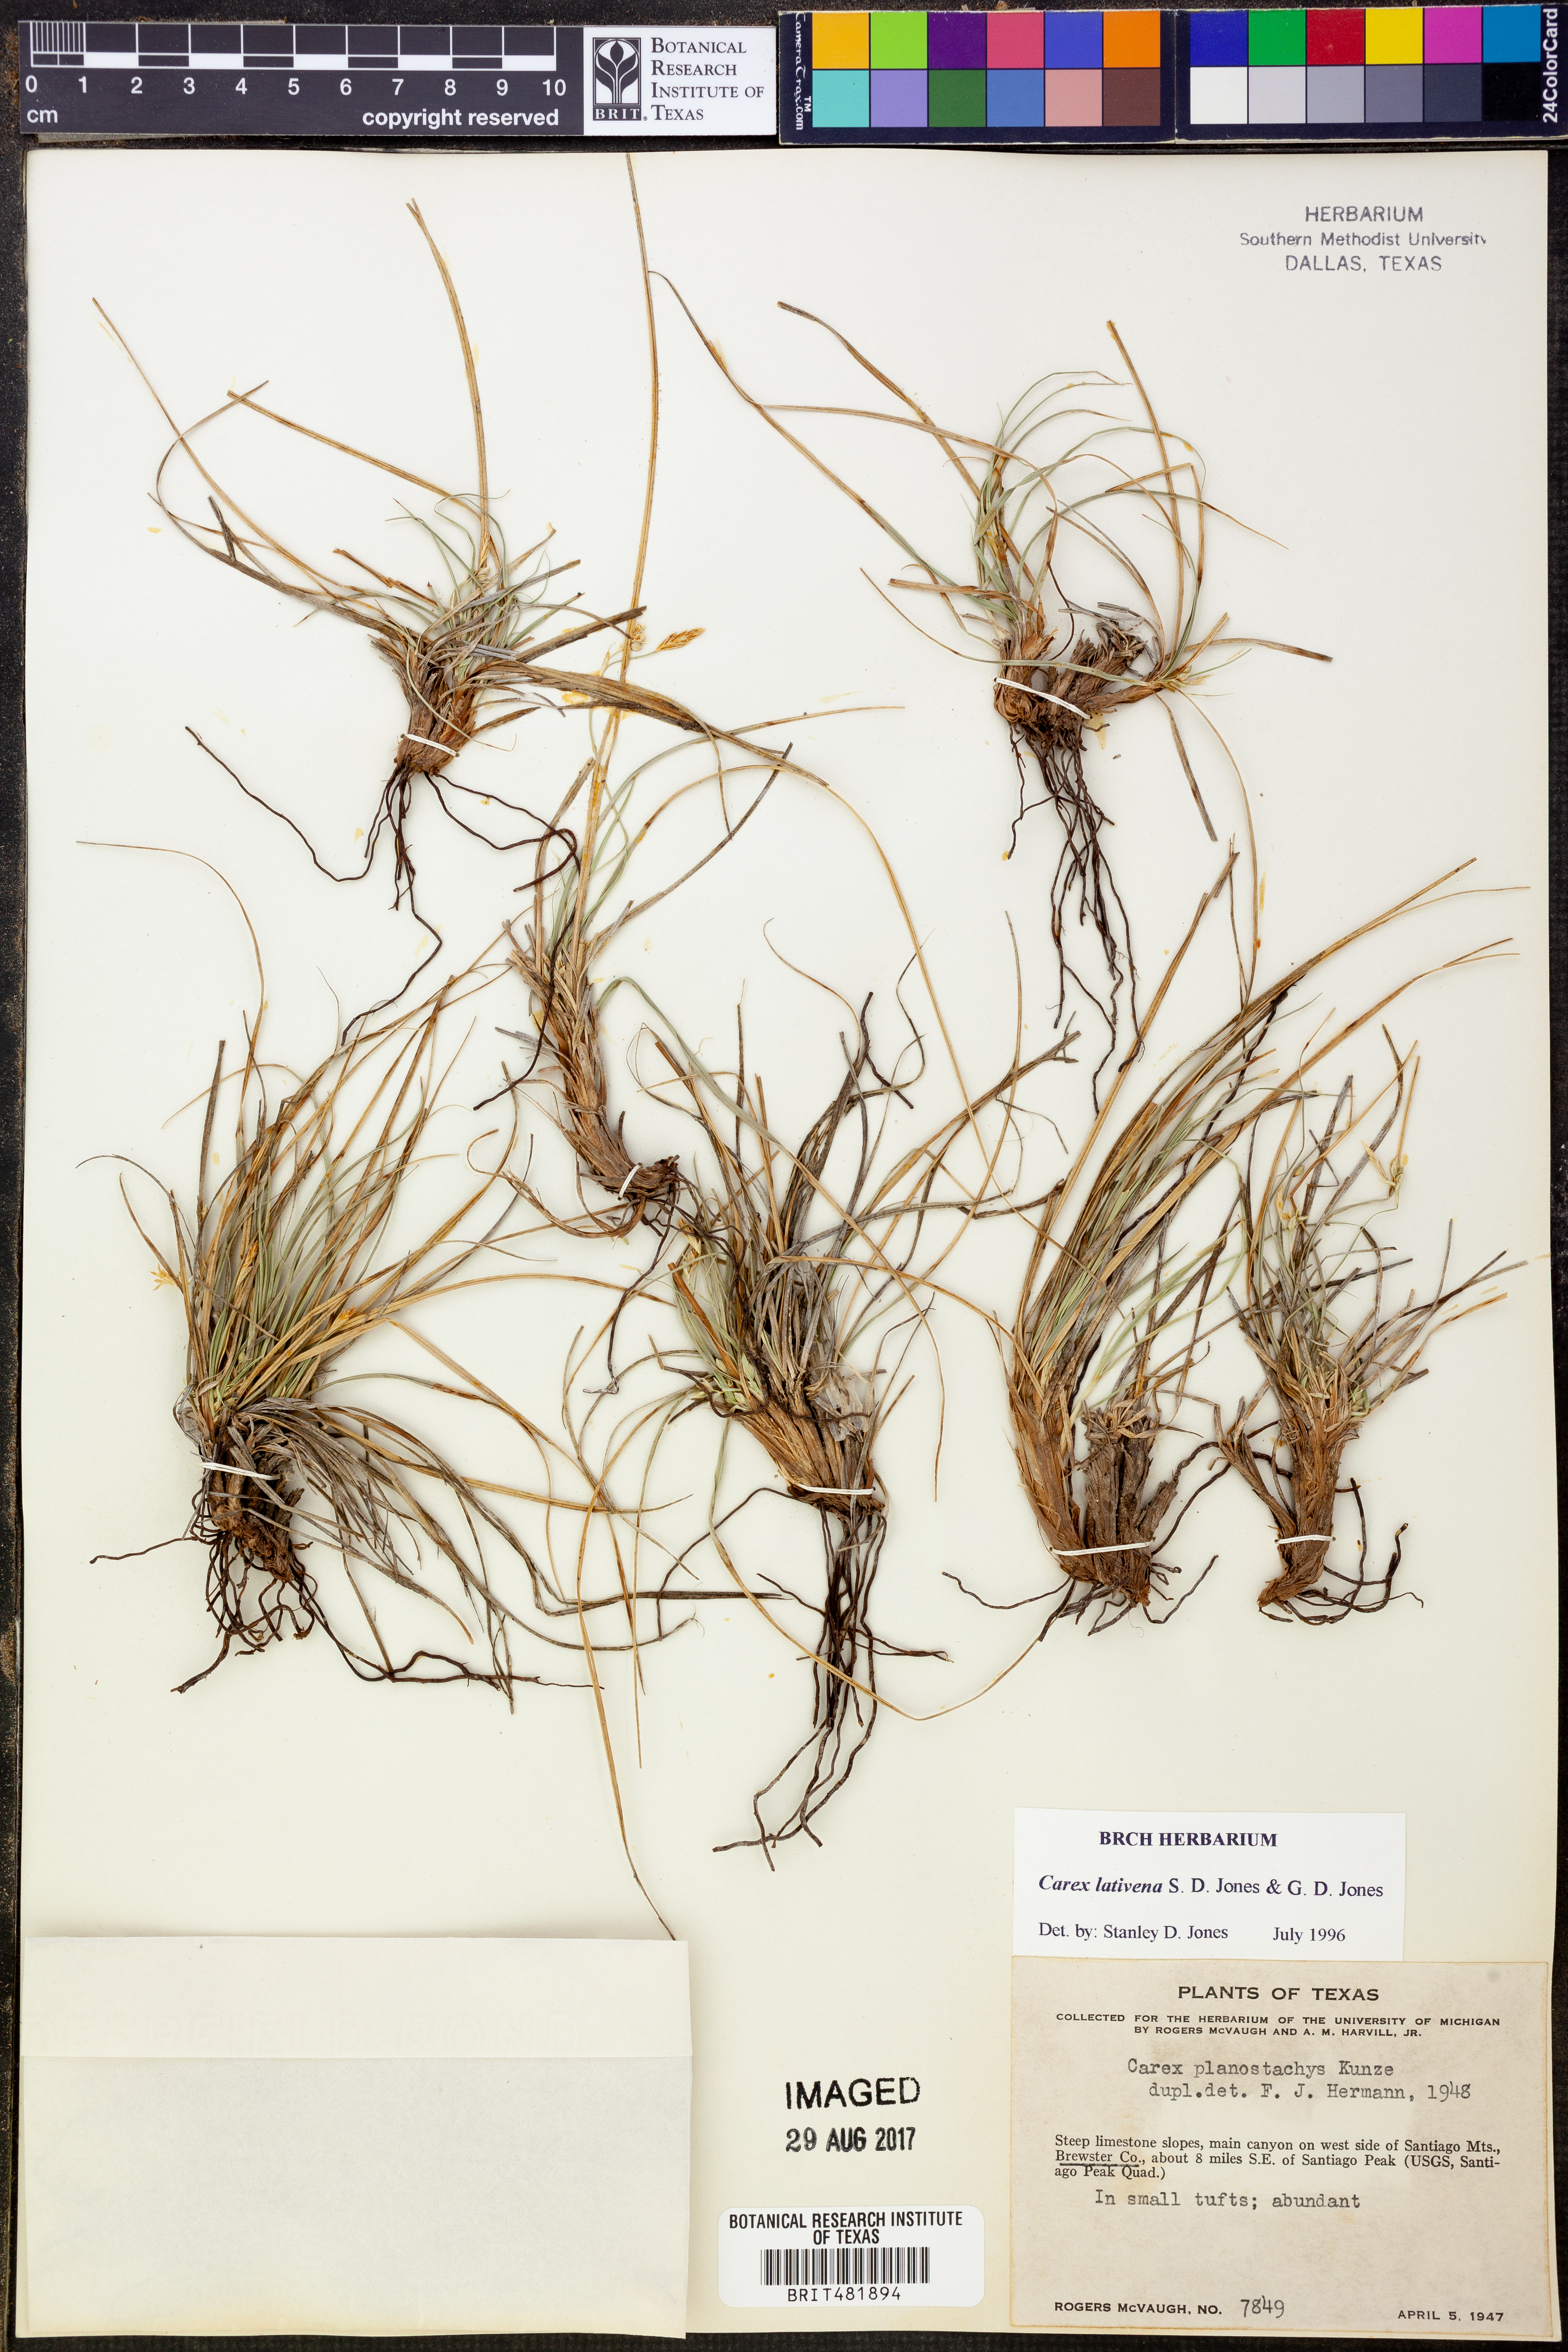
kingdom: Plantae
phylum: Tracheophyta
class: Liliopsida
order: Poales
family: Cyperaceae
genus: Carex
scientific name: Carex lativena
